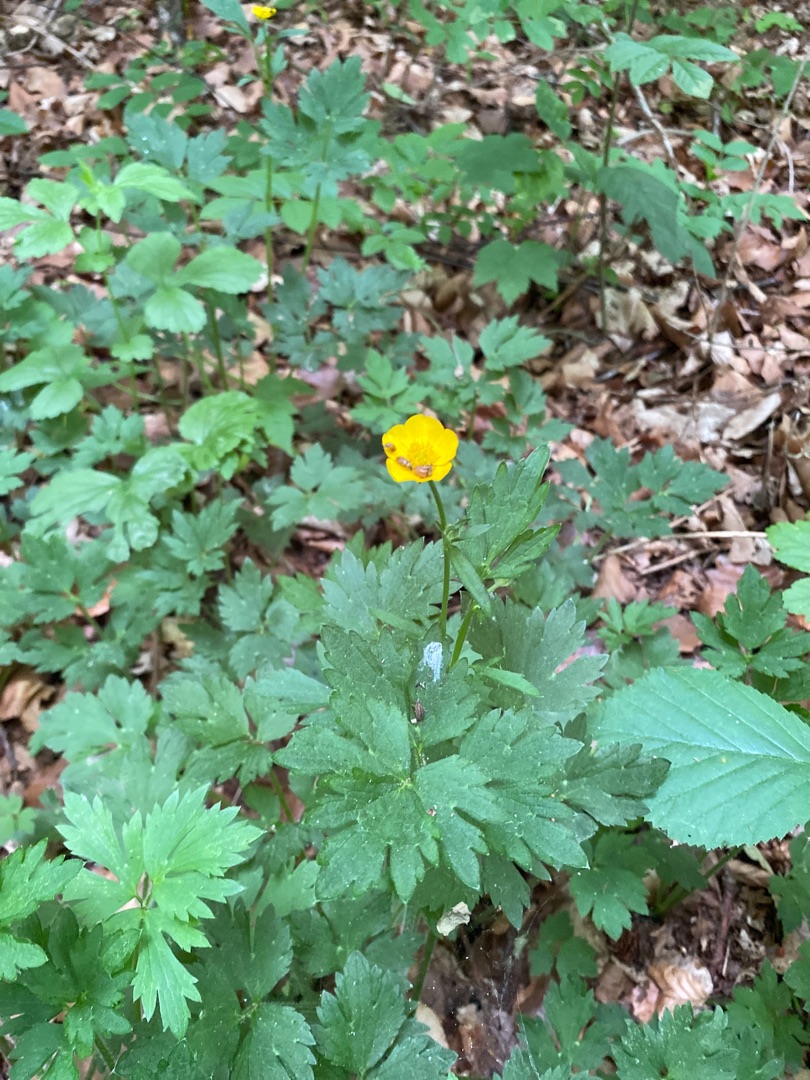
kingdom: Plantae
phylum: Tracheophyta
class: Magnoliopsida
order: Ranunculales
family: Ranunculaceae
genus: Ranunculus
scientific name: Ranunculus repens
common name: Lav ranunkel
